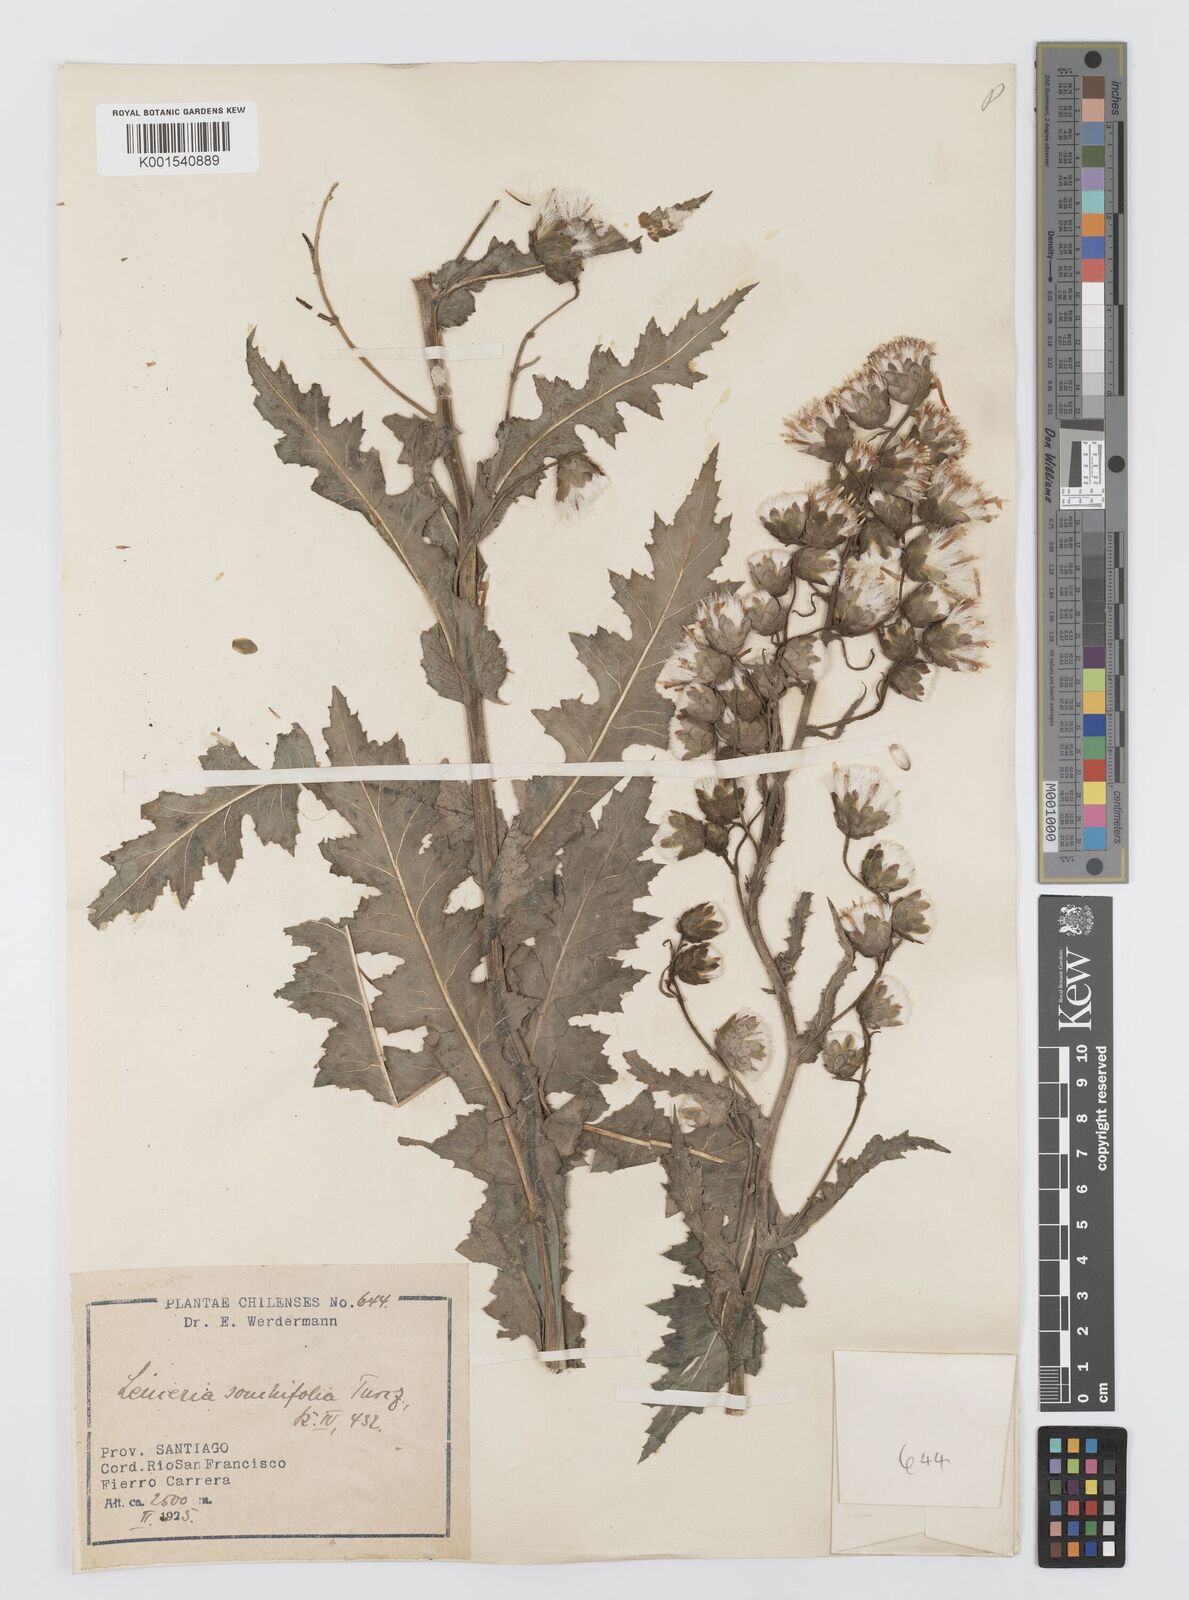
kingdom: Plantae
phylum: Tracheophyta
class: Magnoliopsida
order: Asterales
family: Asteraceae
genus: Leucheria
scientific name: Leucheria floribunda
